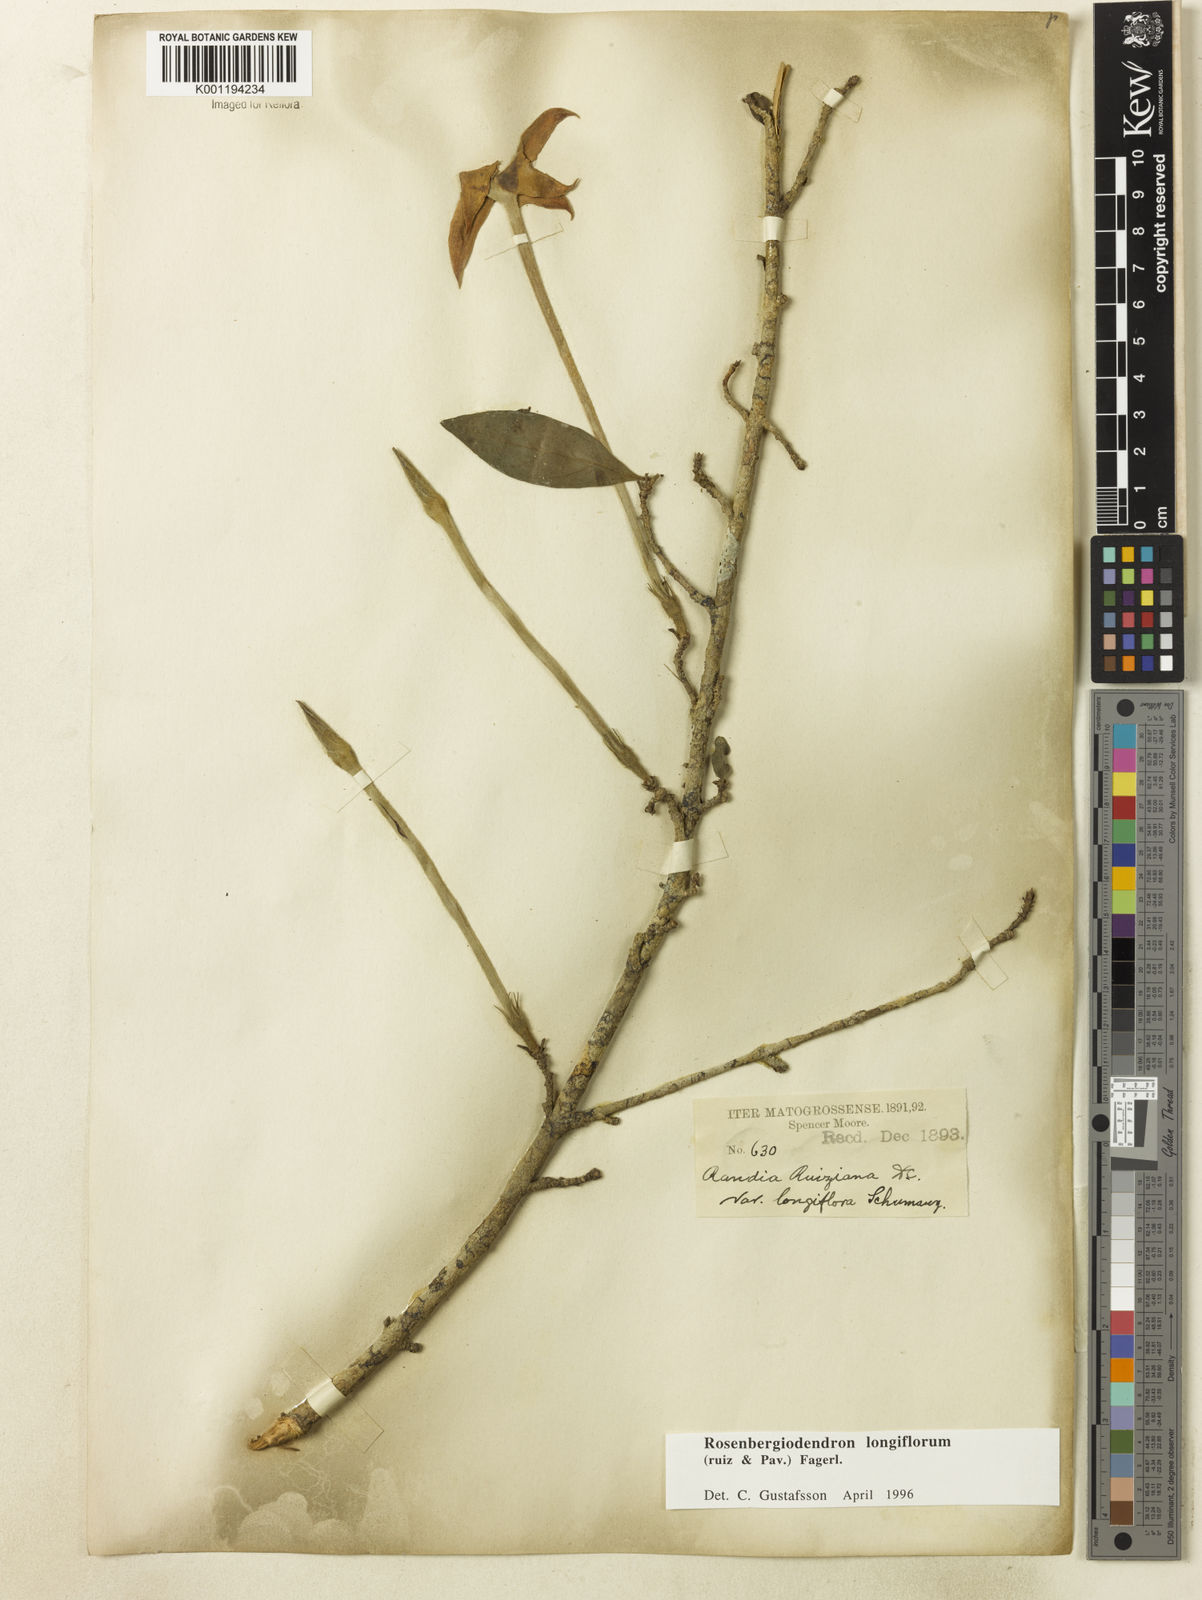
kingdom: Plantae
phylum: Tracheophyta
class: Magnoliopsida
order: Gentianales
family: Rubiaceae
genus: Rosenbergiodendron
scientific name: Rosenbergiodendron longiflorum
